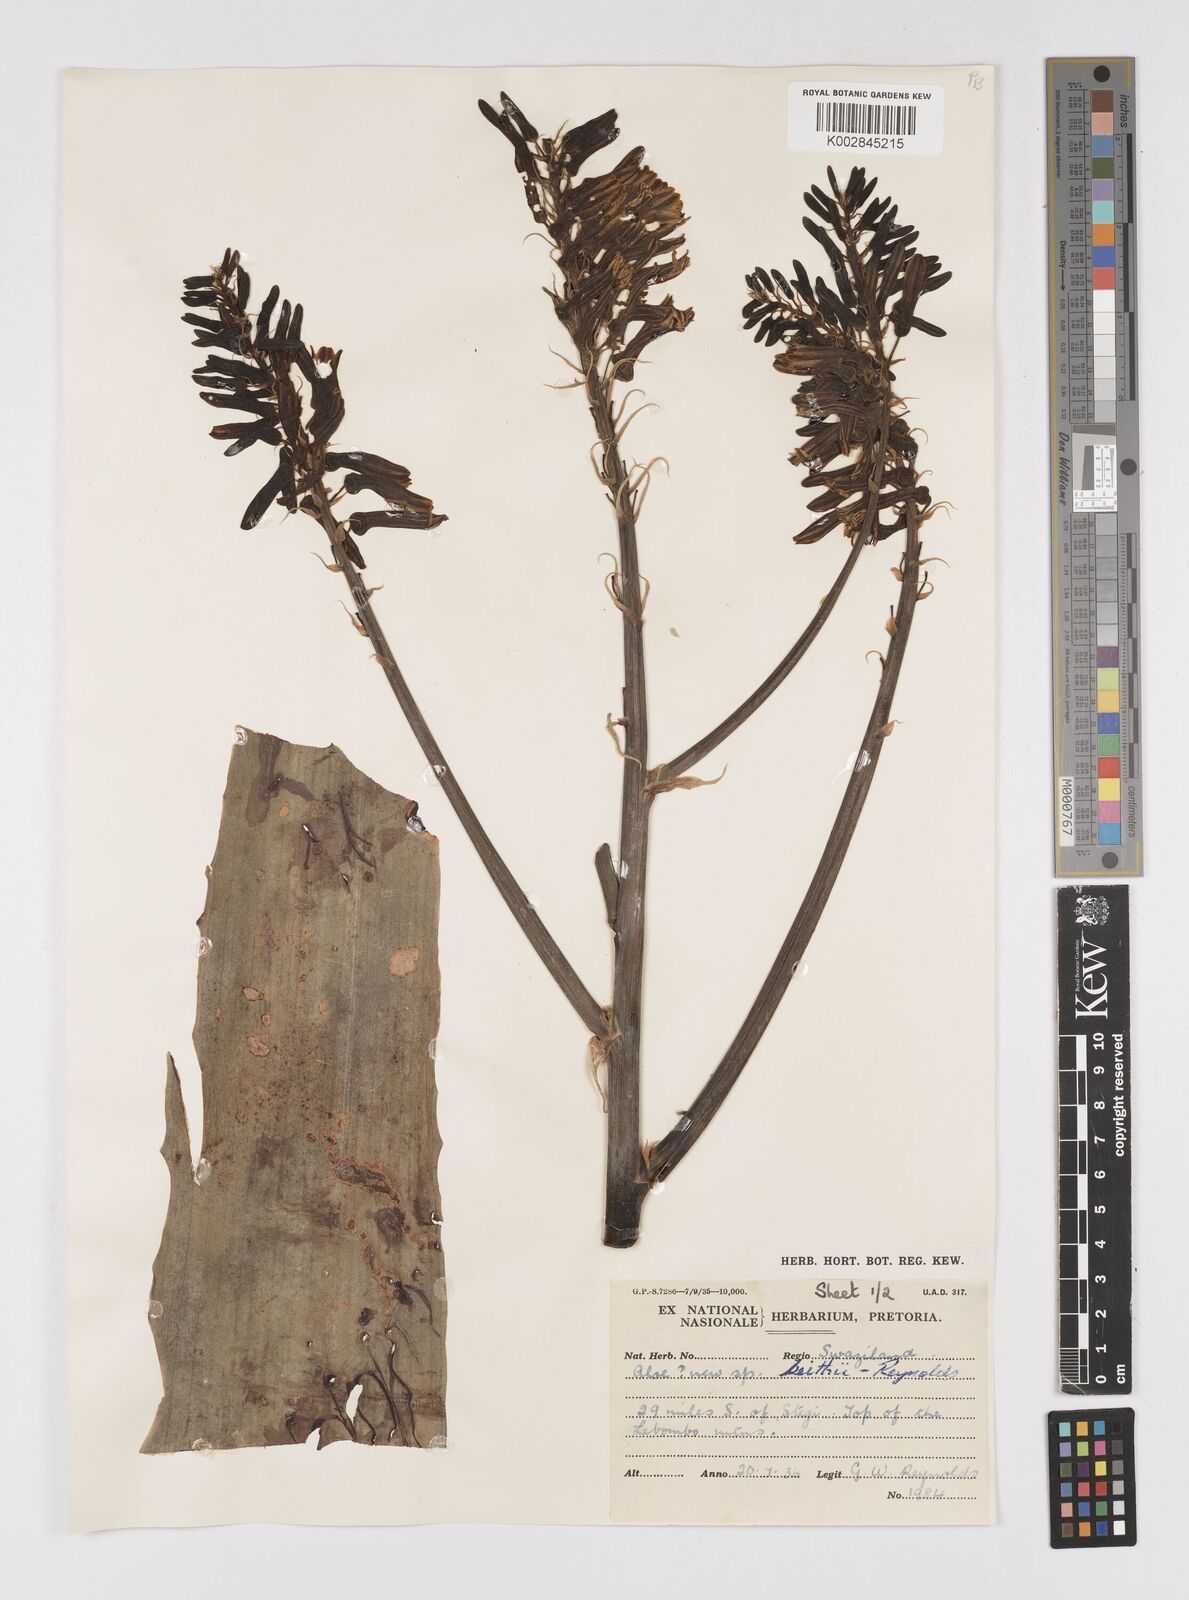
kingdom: Plantae
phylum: Tracheophyta
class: Liliopsida
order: Asparagales
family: Asphodelaceae
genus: Aloe
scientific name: Aloe parvibracteata
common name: Lowveld spotted aloe
